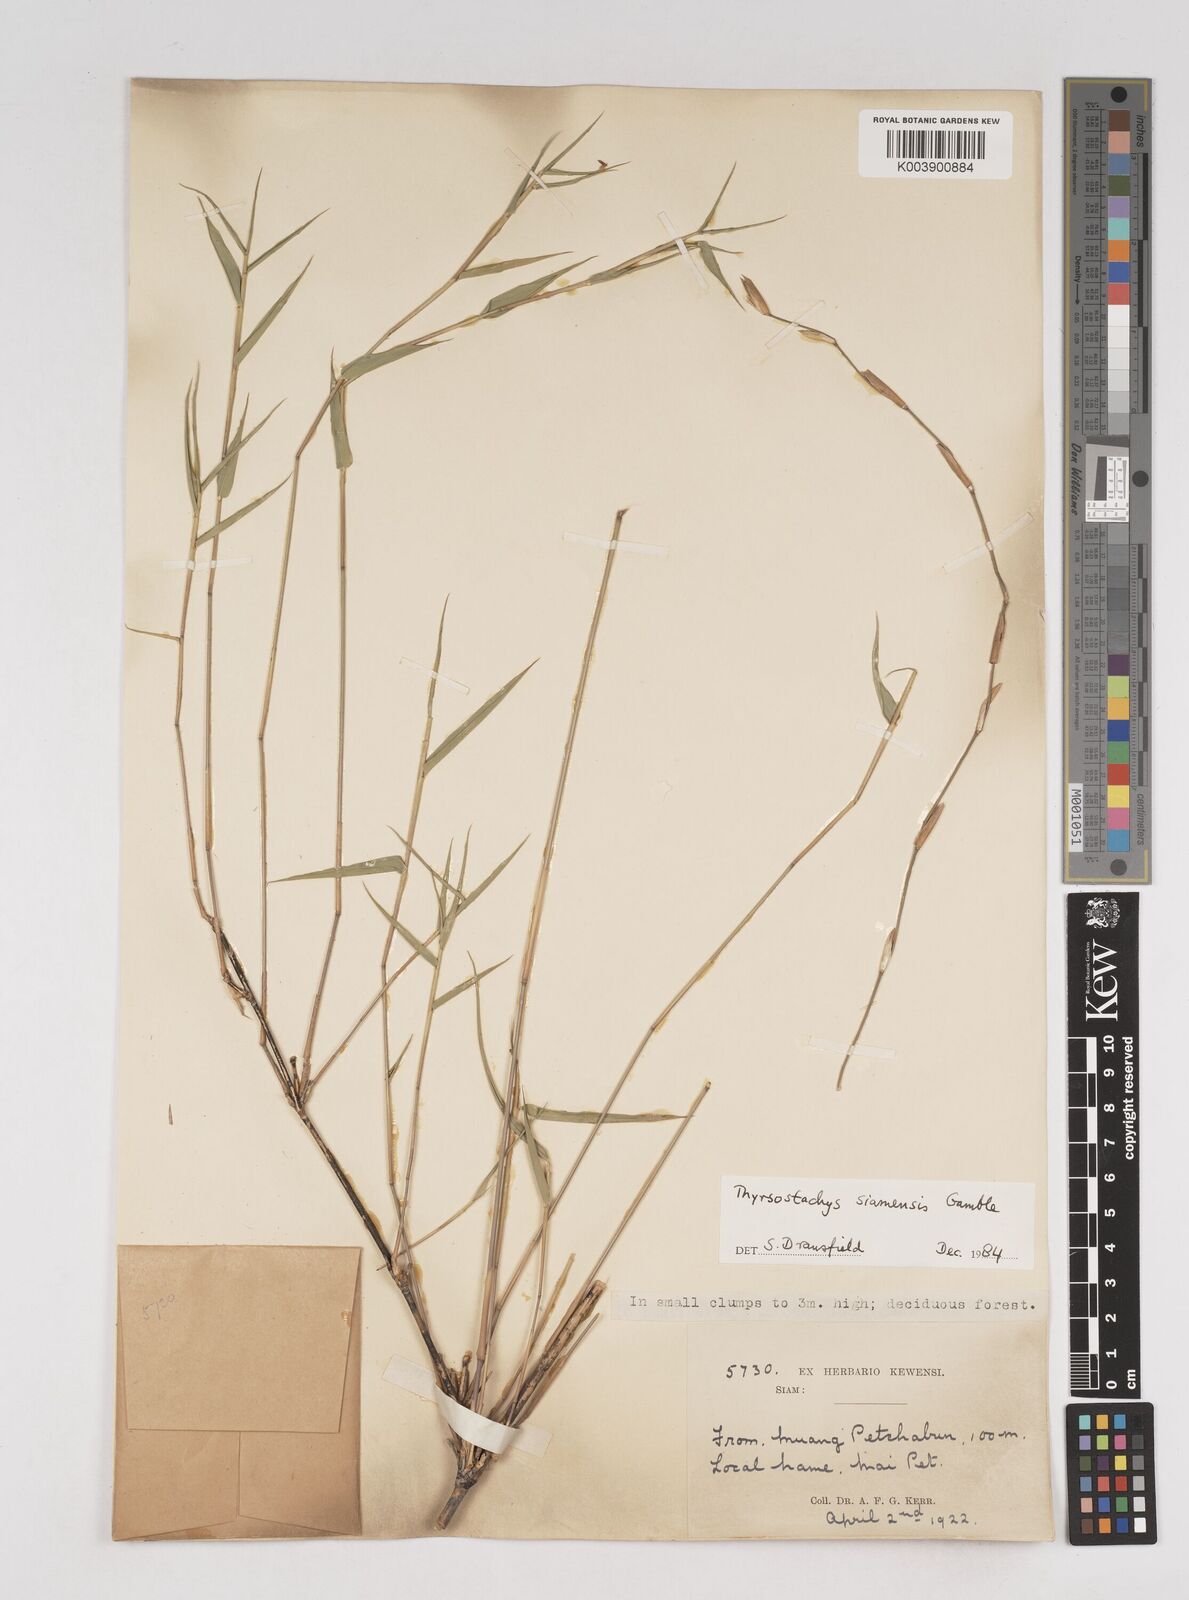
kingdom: Plantae
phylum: Tracheophyta
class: Liliopsida
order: Poales
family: Poaceae
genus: Thyrsostachys
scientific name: Thyrsostachys
